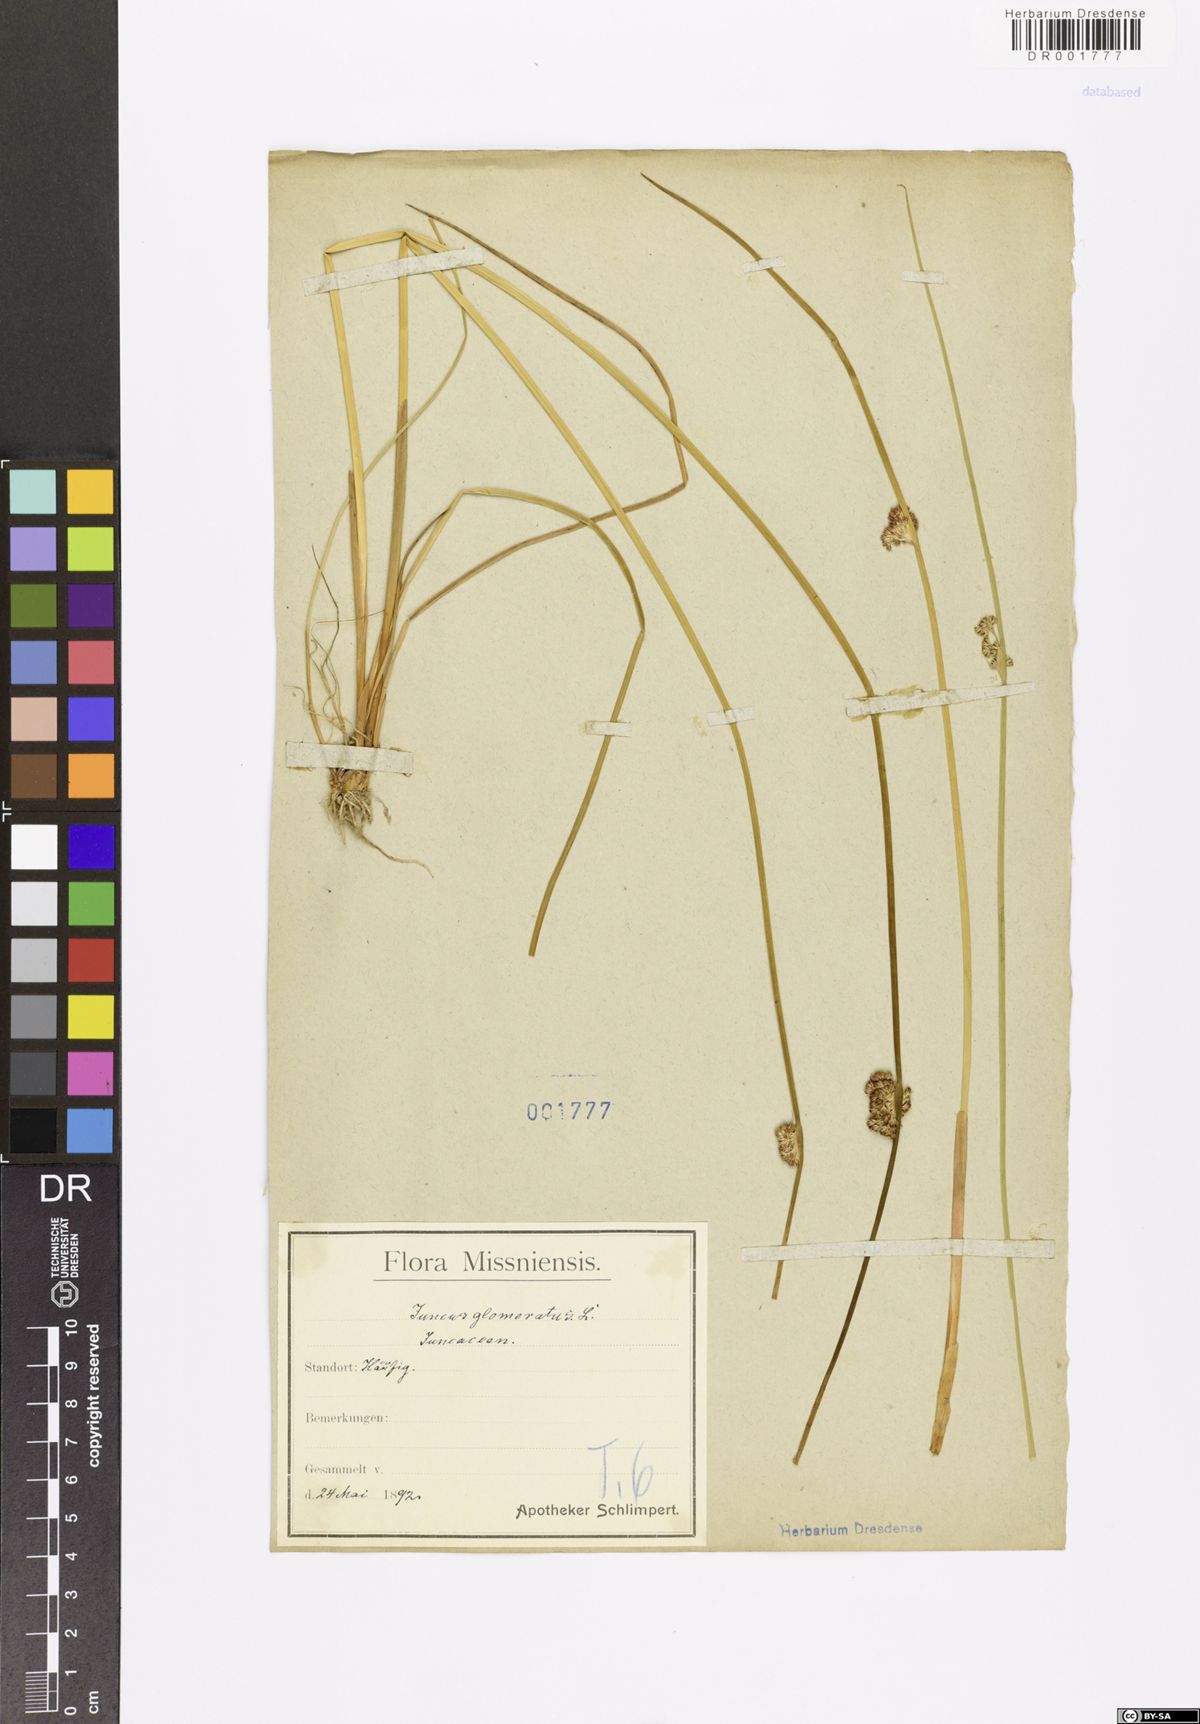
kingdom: Plantae
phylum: Tracheophyta
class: Liliopsida
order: Poales
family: Juncaceae
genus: Juncus
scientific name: Juncus conglomeratus
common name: Compact rush
